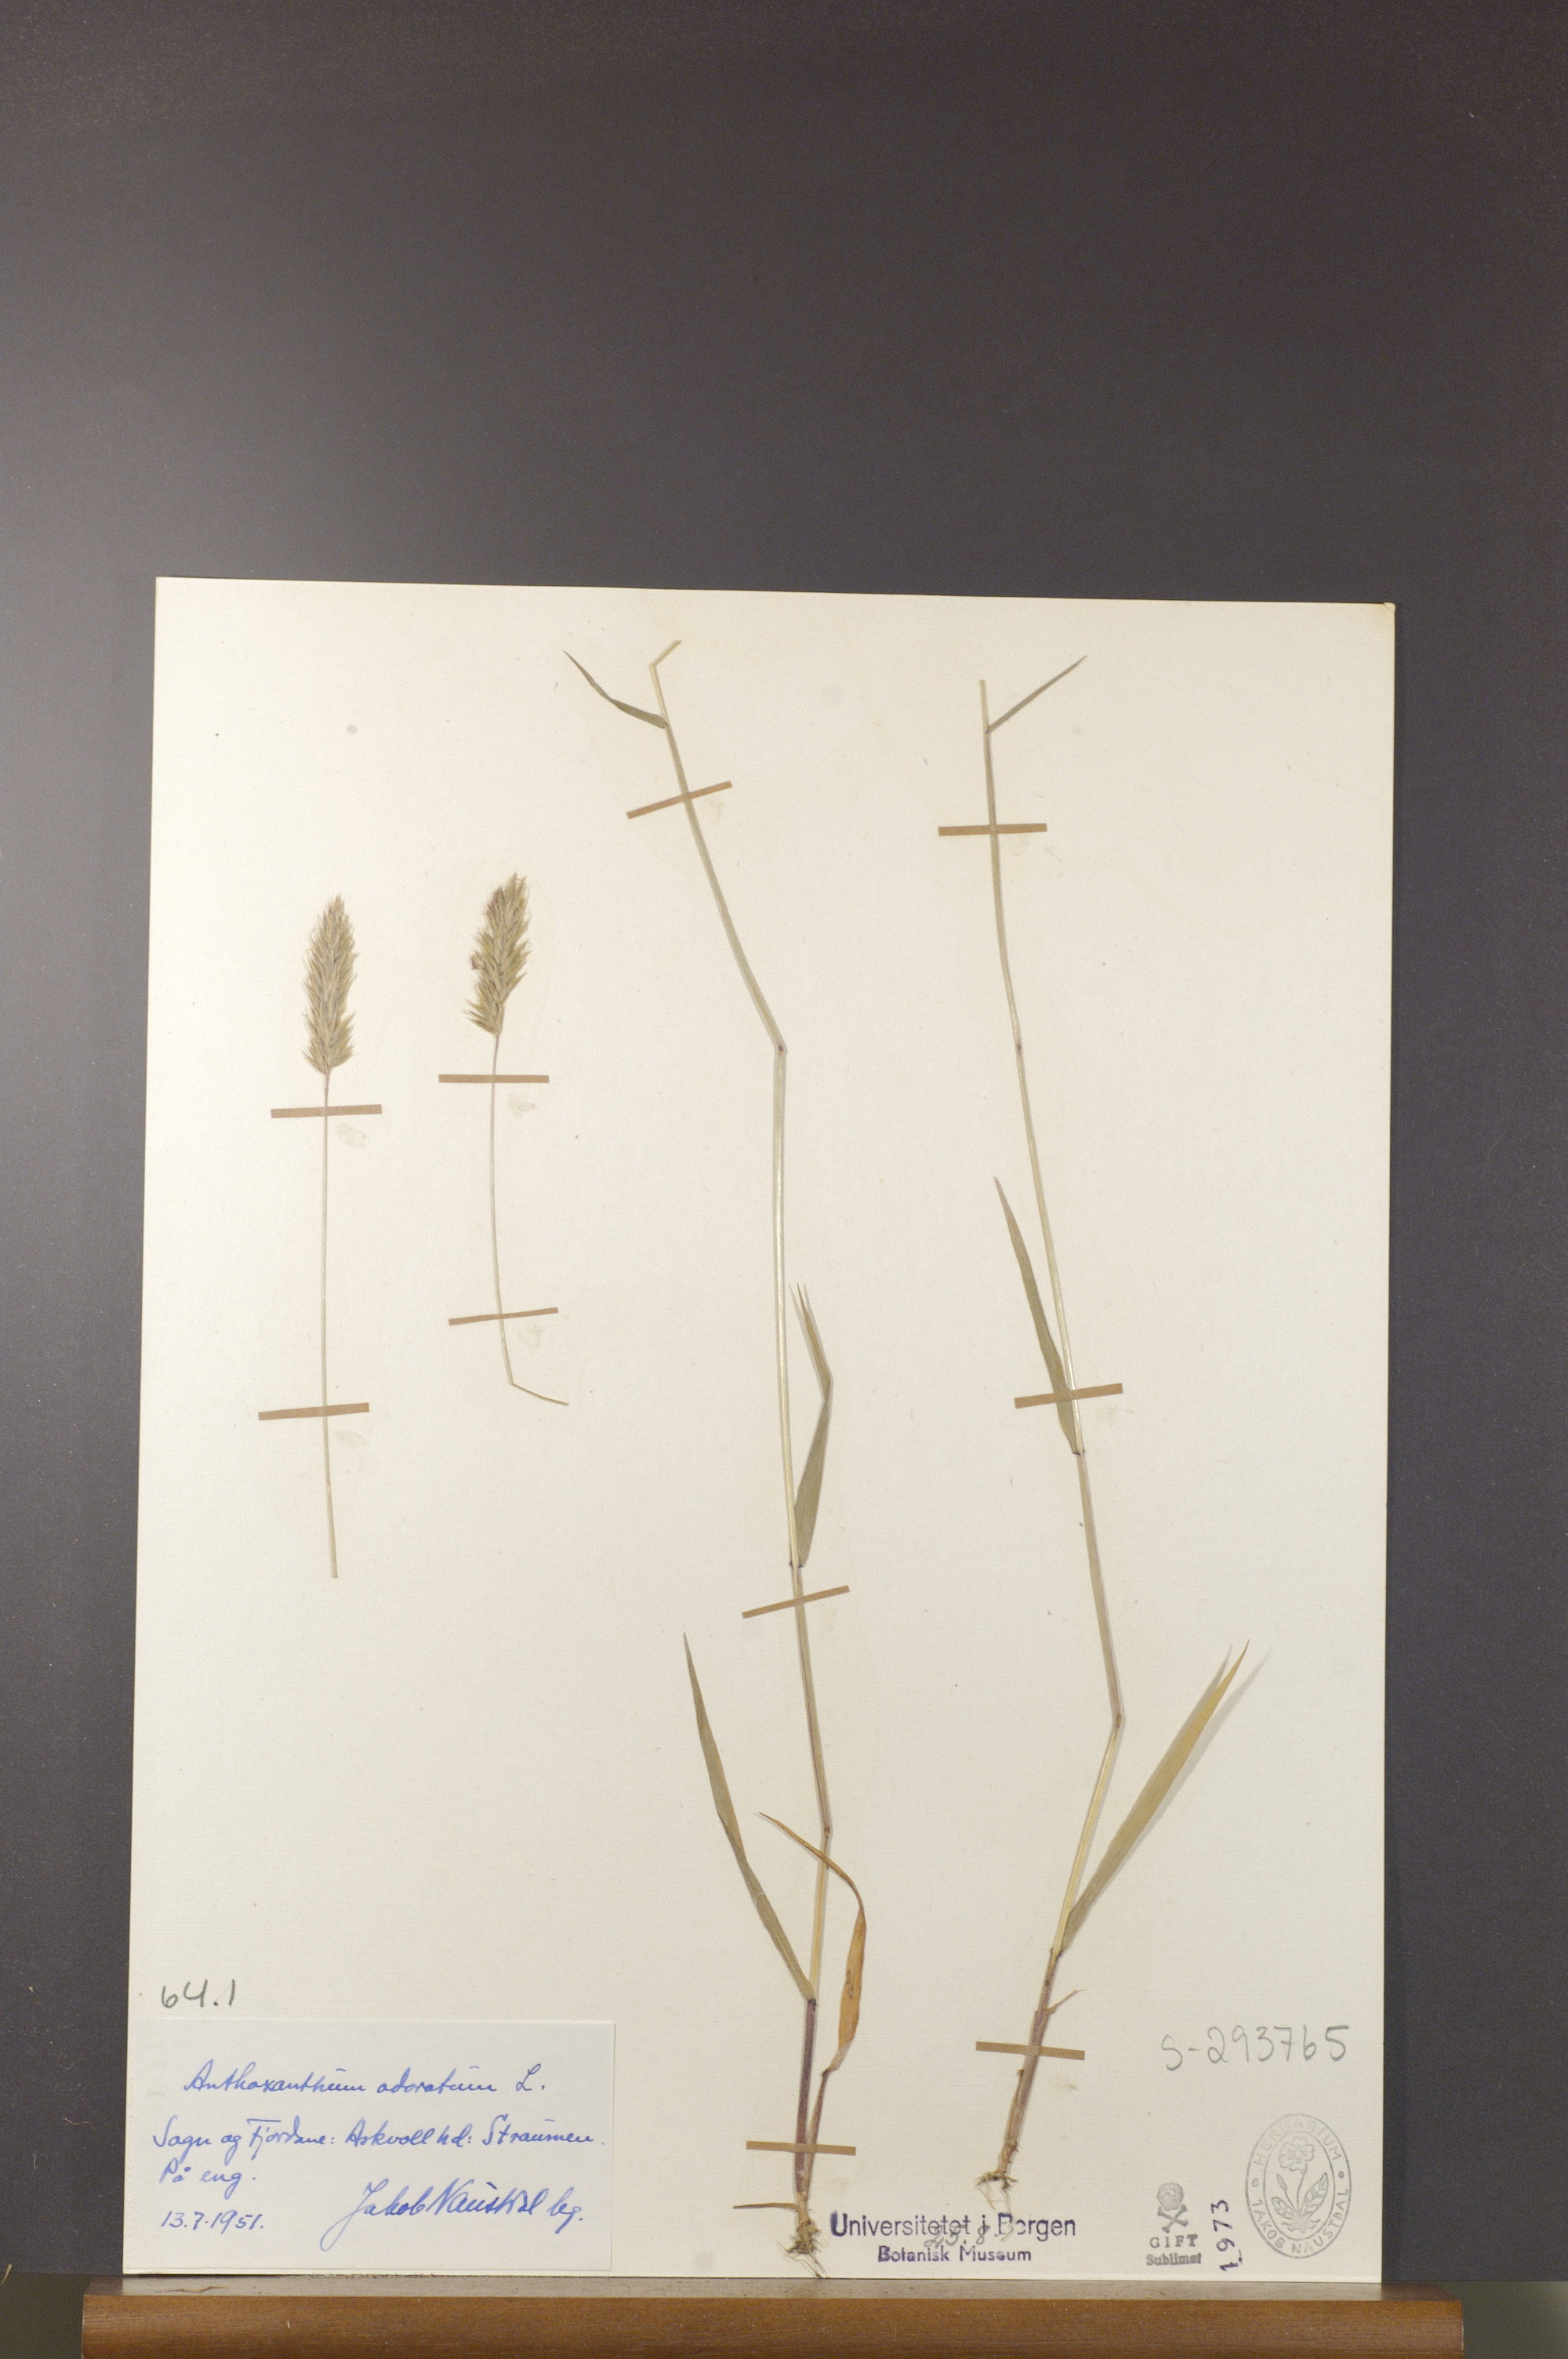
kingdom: Plantae
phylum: Tracheophyta
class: Liliopsida
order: Poales
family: Poaceae
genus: Anthoxanthum
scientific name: Anthoxanthum odoratum
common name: Sweet vernalgrass
